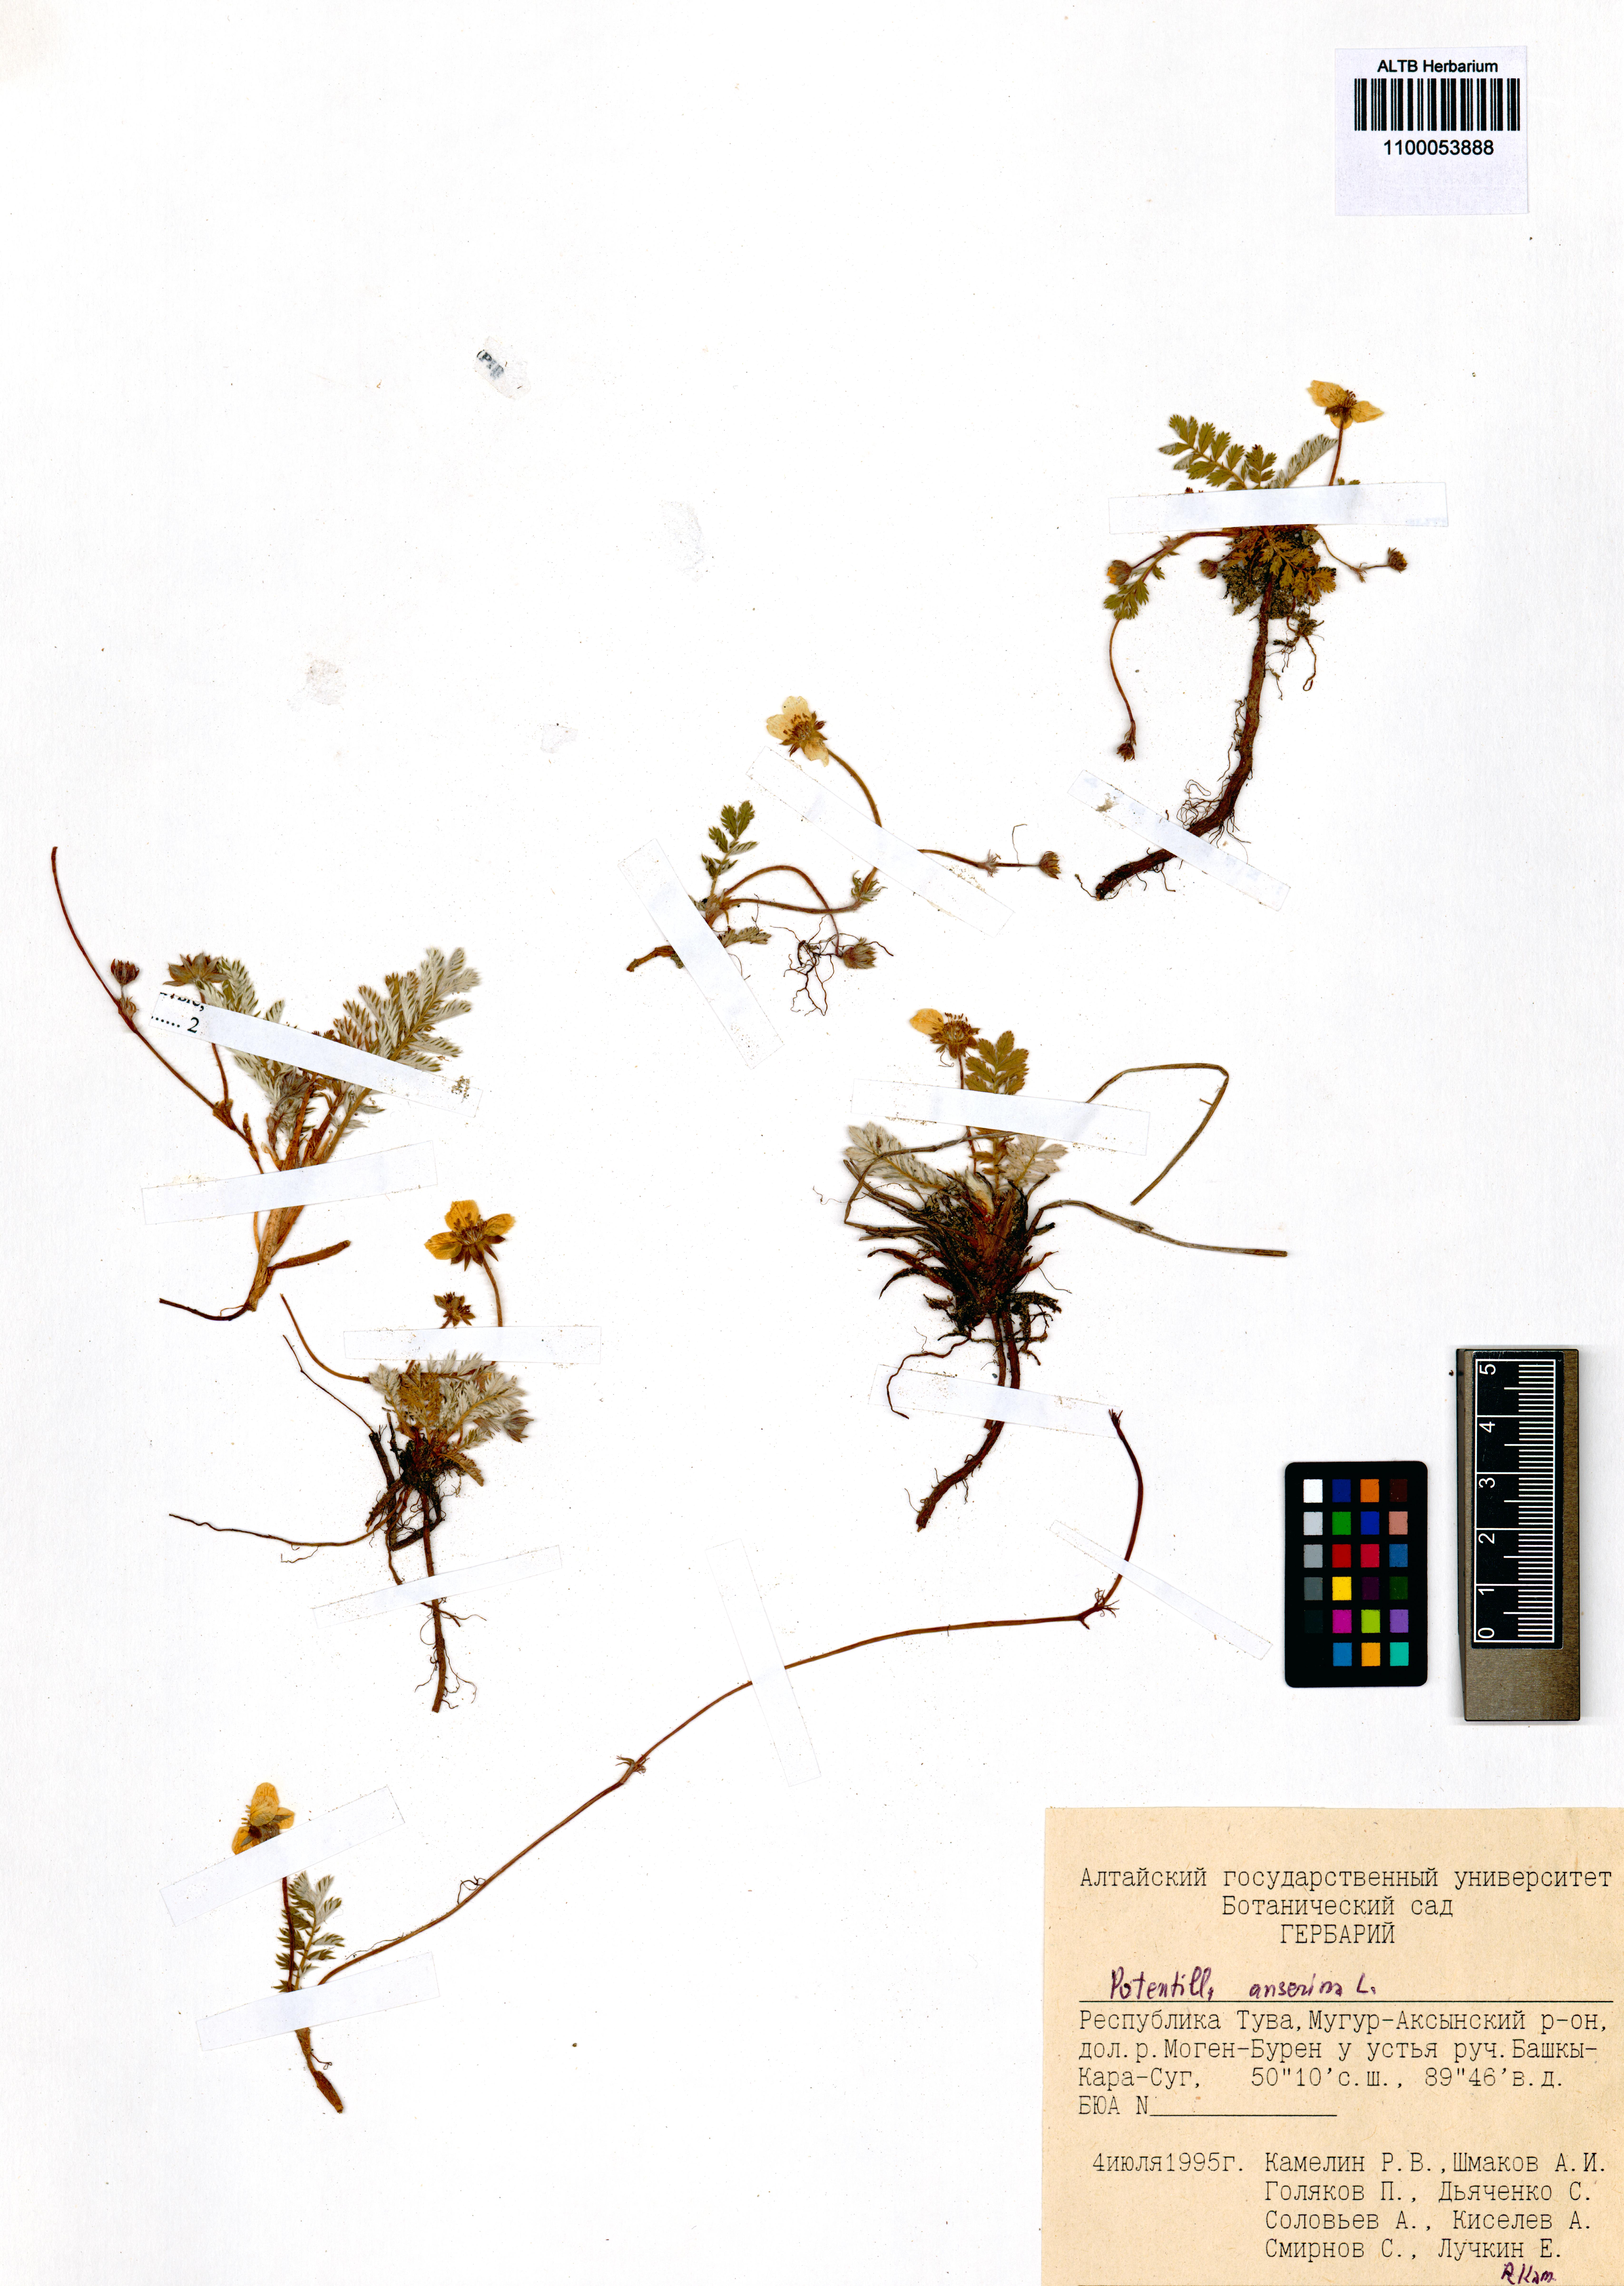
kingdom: Plantae
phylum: Tracheophyta
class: Magnoliopsida
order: Rosales
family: Rosaceae
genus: Argentina
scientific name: Argentina anserina
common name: Common silverweed
